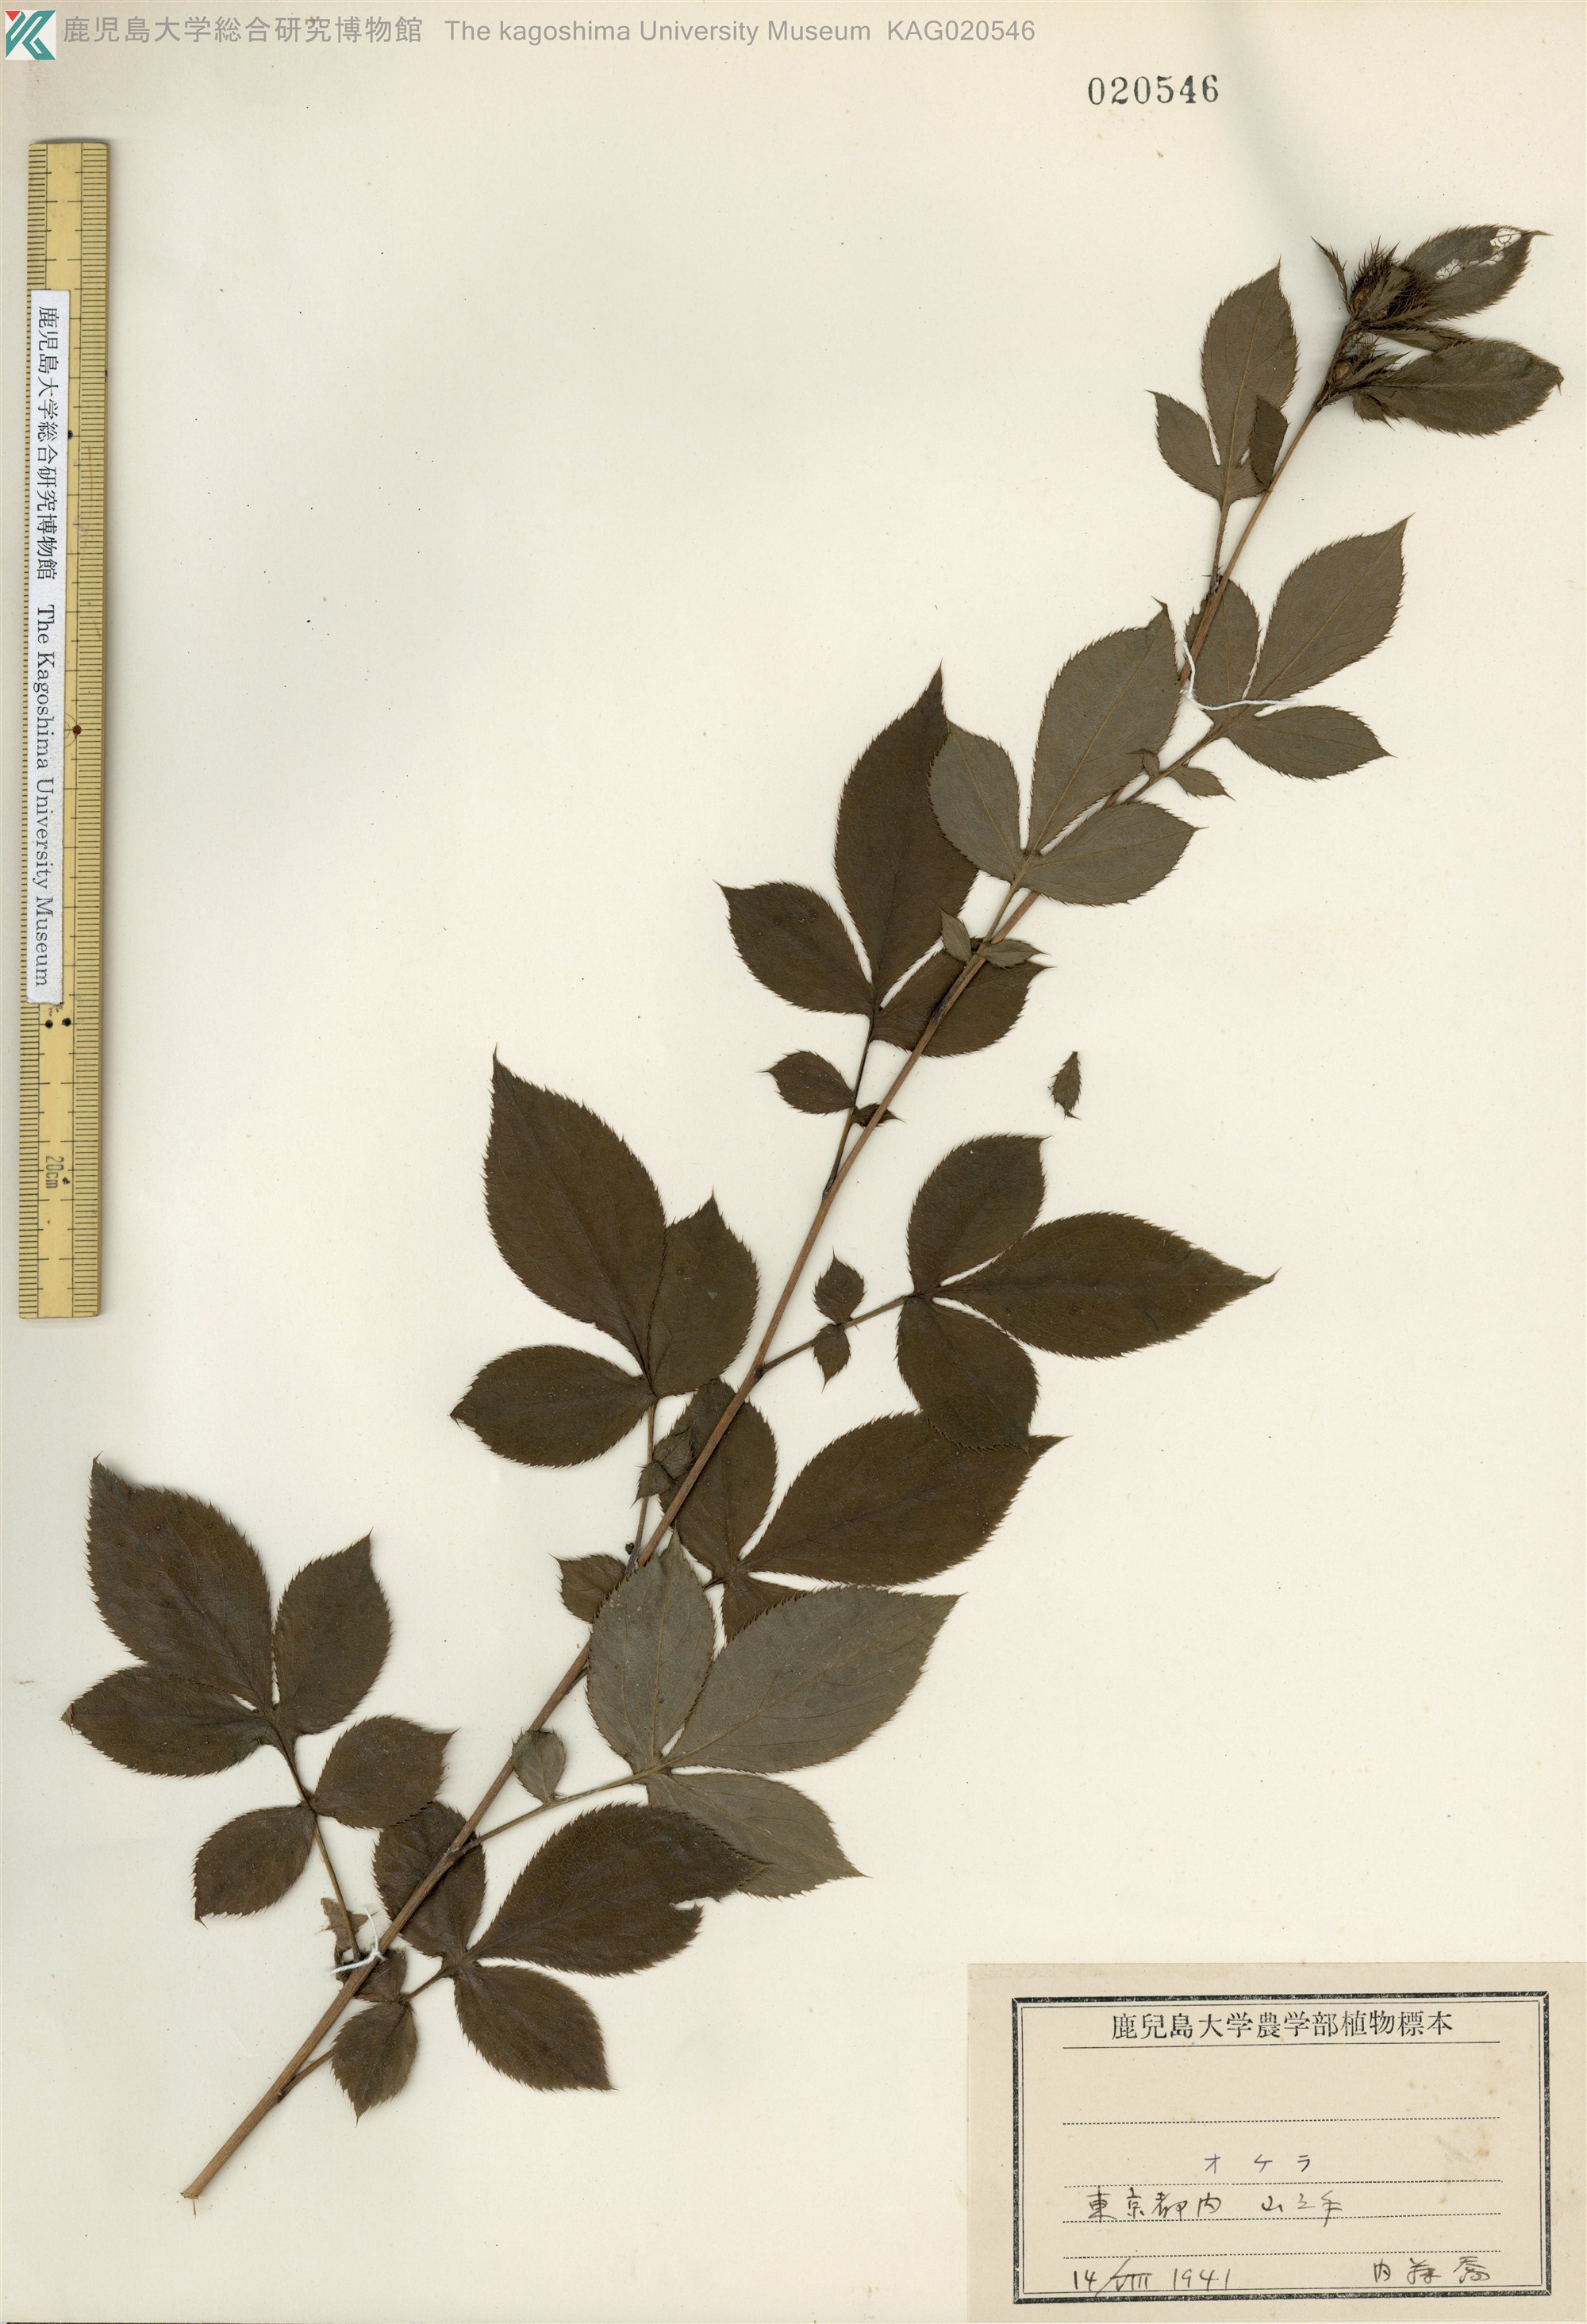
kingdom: Plantae
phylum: Tracheophyta
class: Magnoliopsida
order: Asterales
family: Asteraceae
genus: Atractylodes
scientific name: Atractylodes lancea
